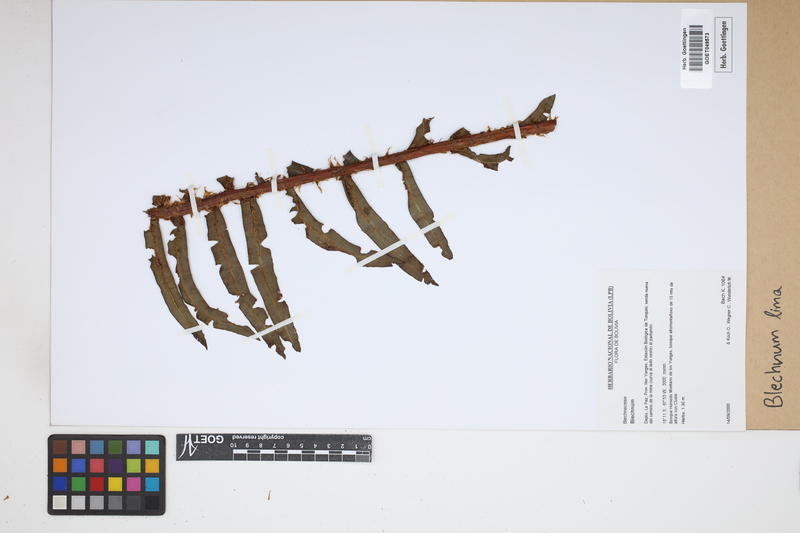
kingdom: Plantae
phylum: Tracheophyta
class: Polypodiopsida
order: Polypodiales
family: Blechnaceae
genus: Parablechnum
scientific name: Parablechnum lima
